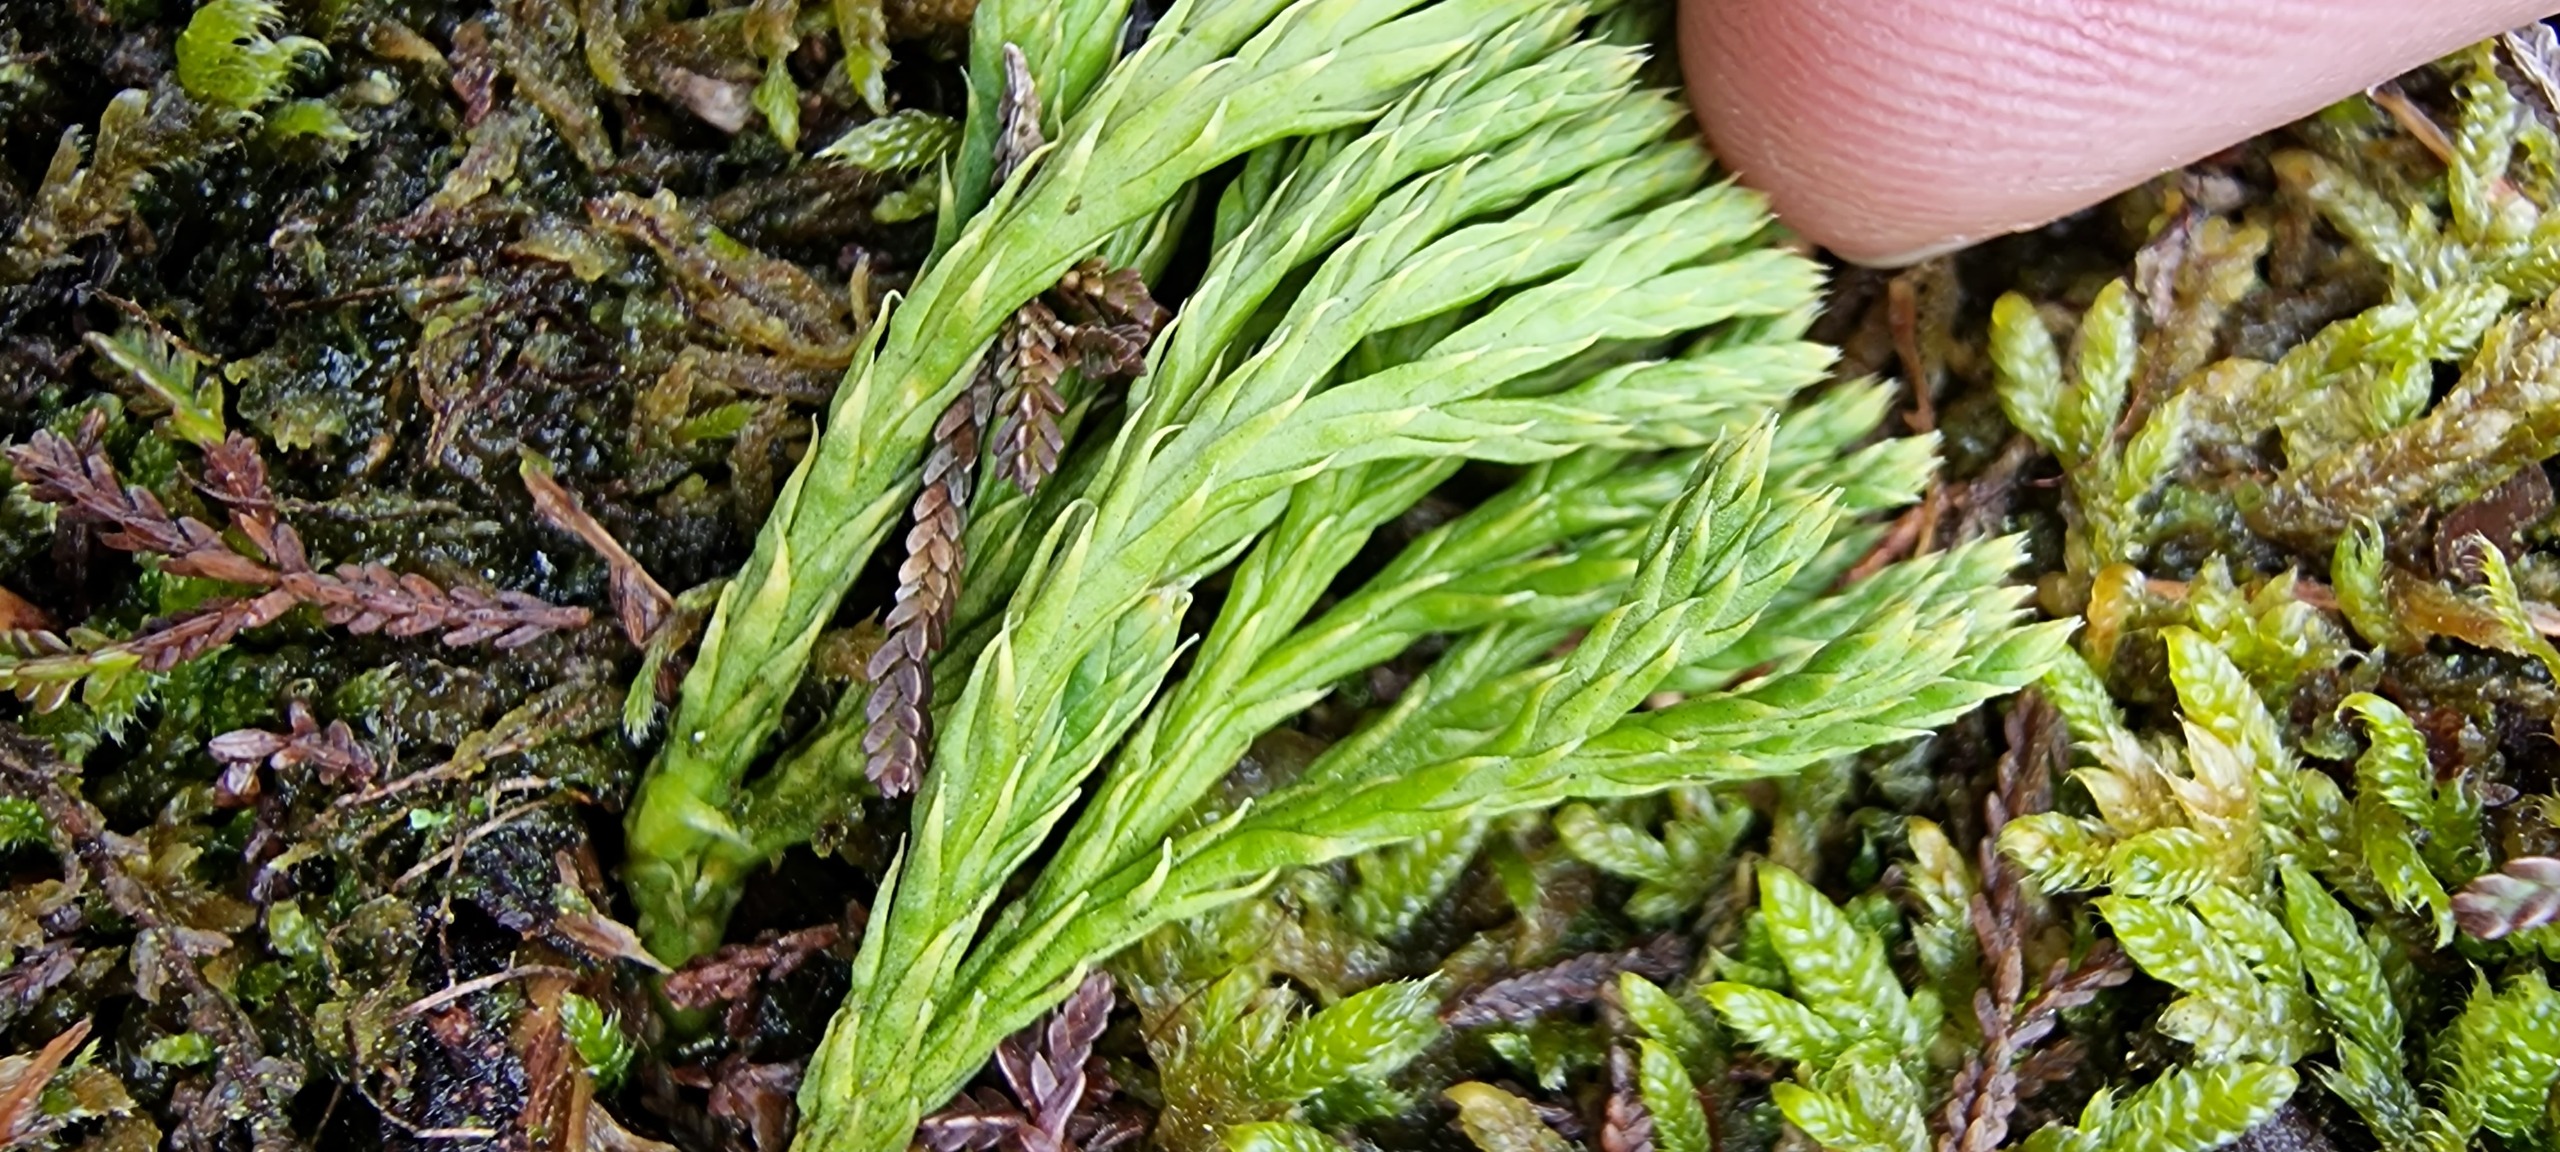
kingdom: Plantae
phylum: Tracheophyta
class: Lycopodiopsida
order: Lycopodiales
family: Lycopodiaceae
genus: Diphasiastrum
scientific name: Diphasiastrum tristachyum
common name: Cypres-ulvefod
